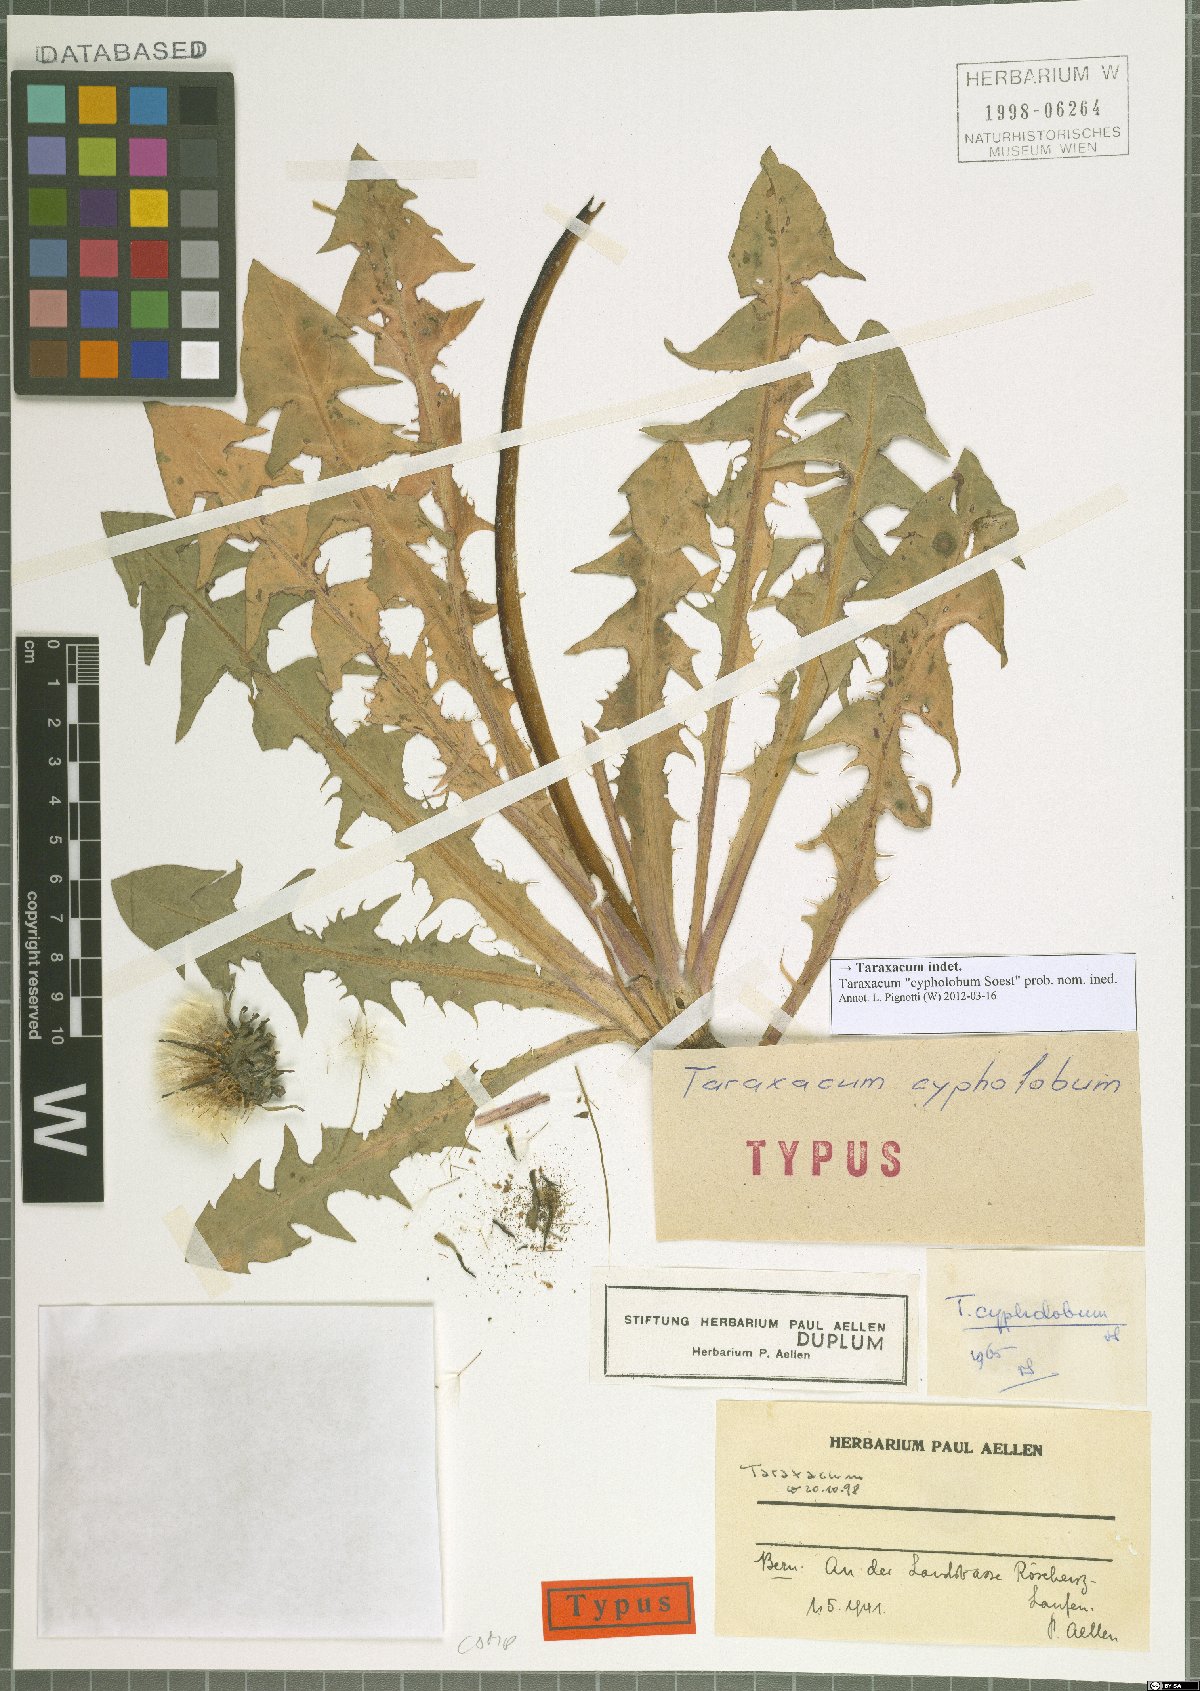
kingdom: Plantae
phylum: Tracheophyta
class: Magnoliopsida
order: Asterales
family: Asteraceae
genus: Taraxacum
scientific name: Taraxacum
